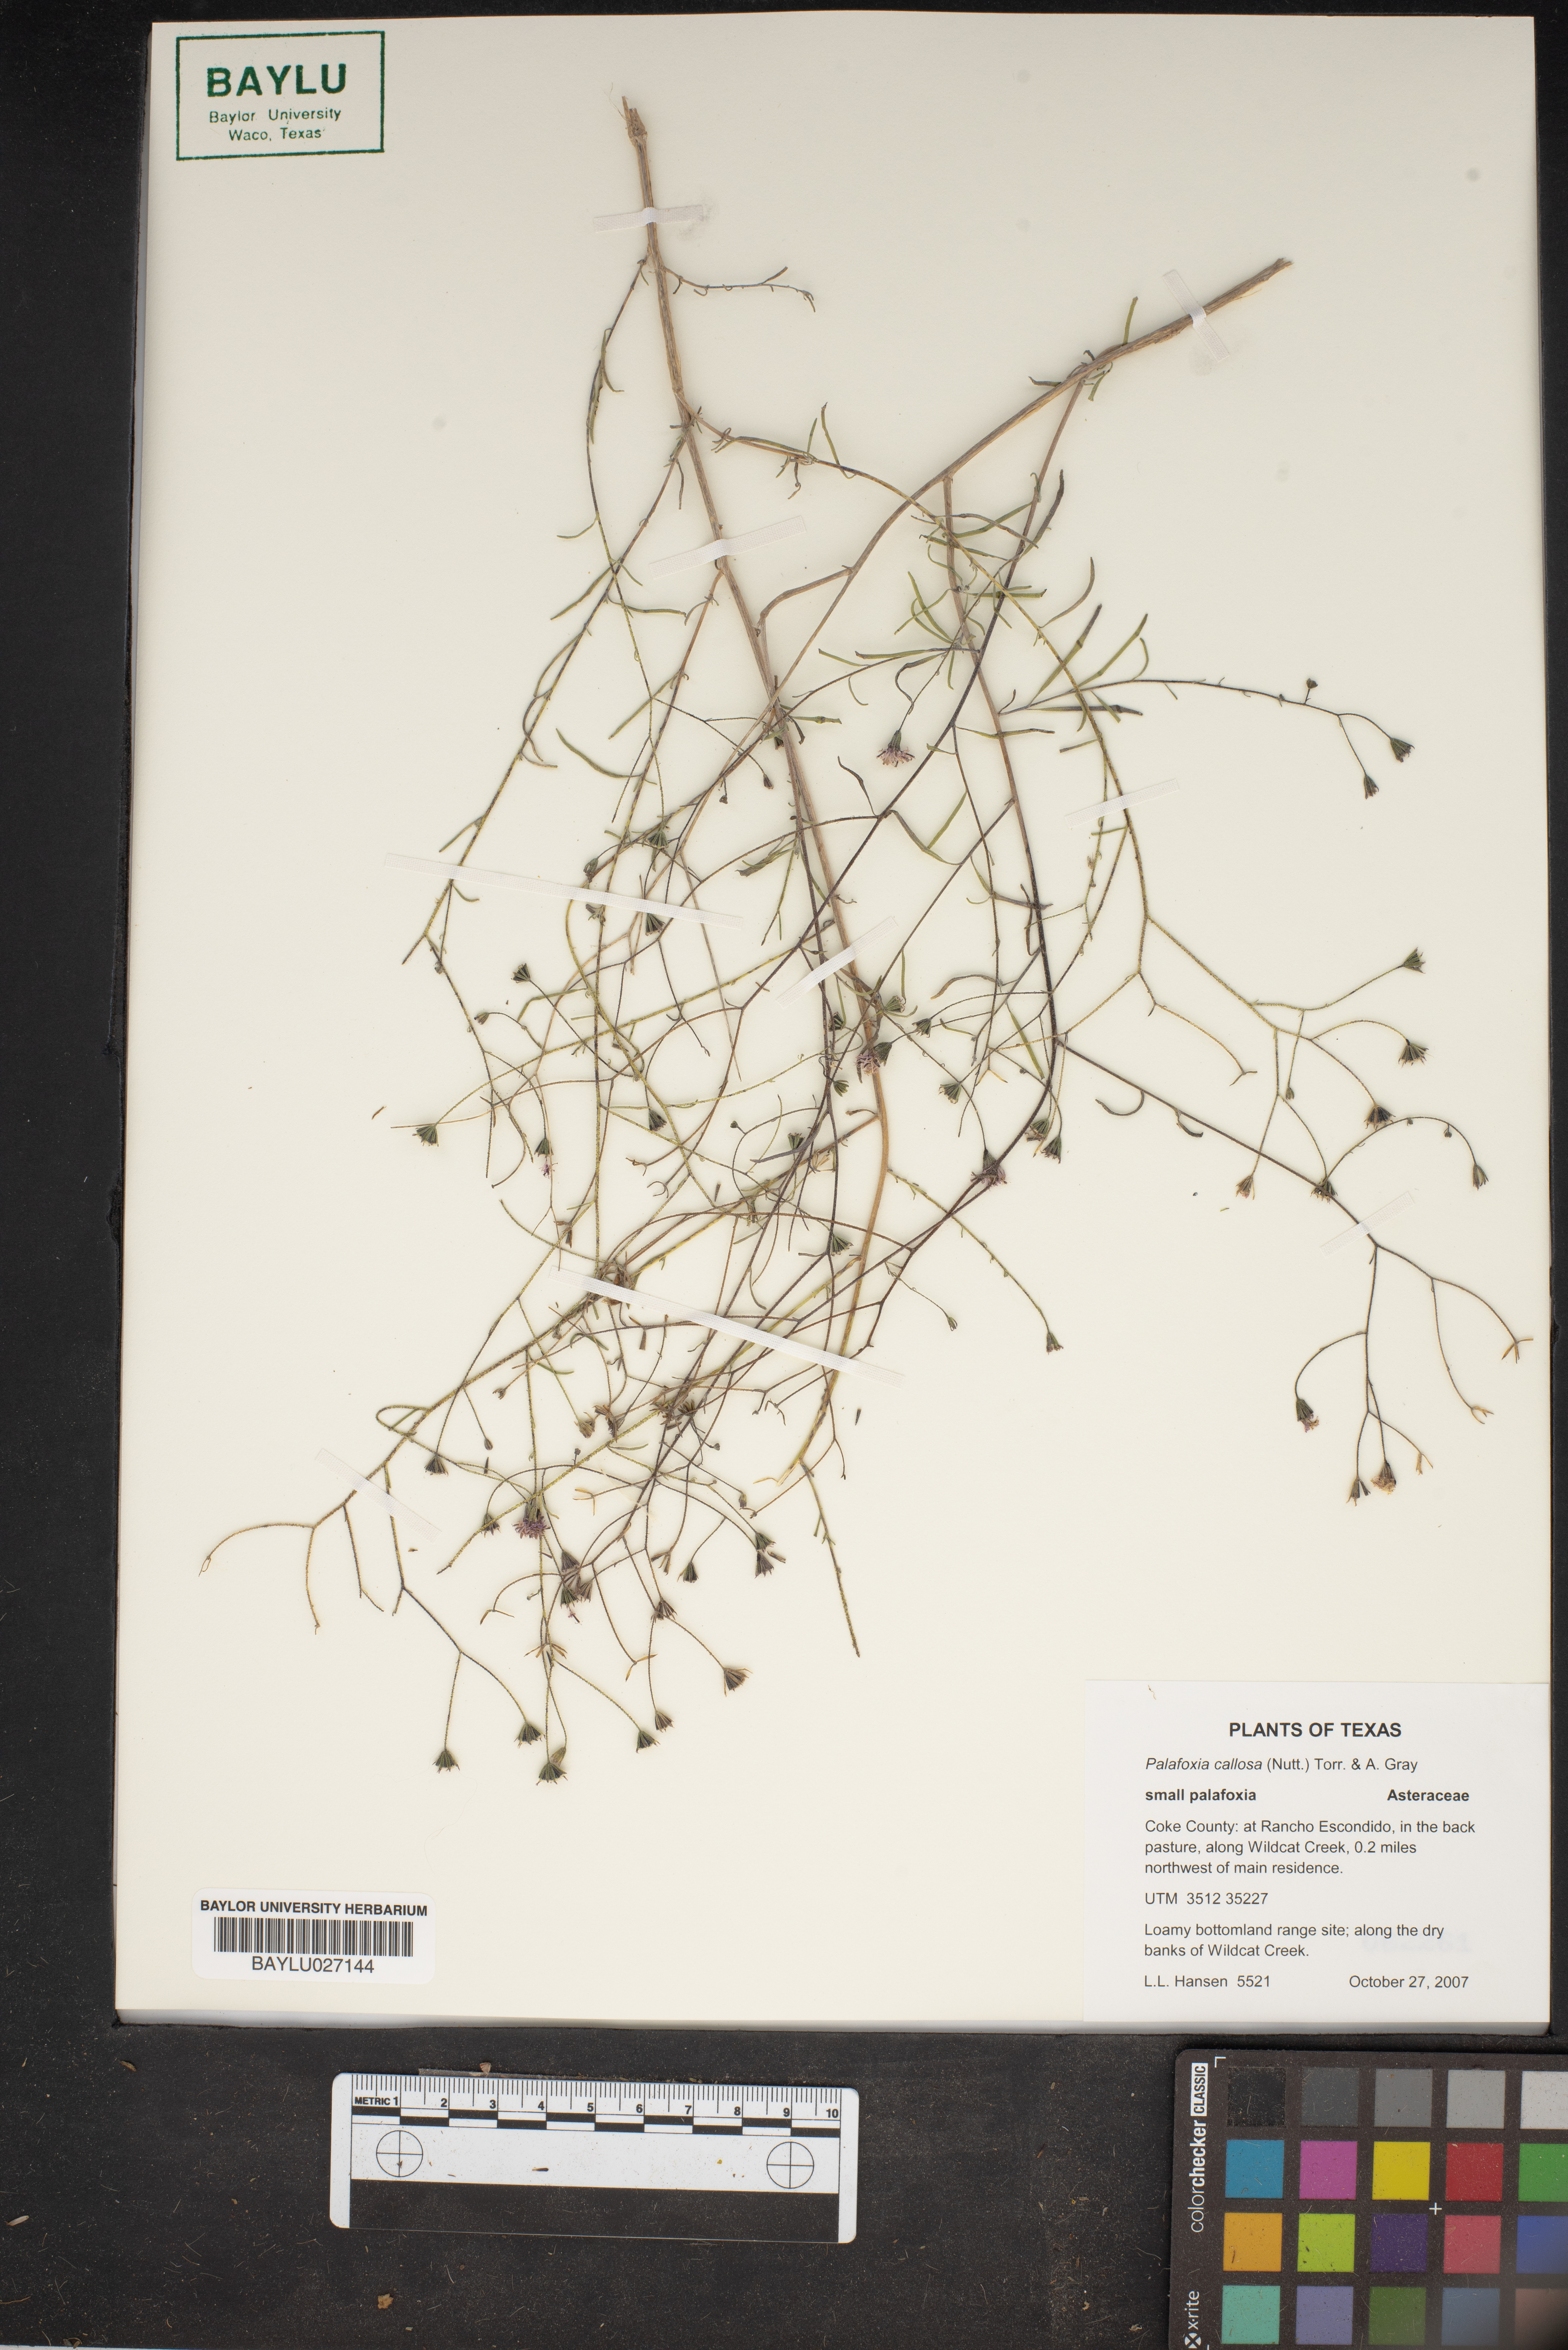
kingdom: Plantae
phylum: Tracheophyta
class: Magnoliopsida
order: Asterales
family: Asteraceae
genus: Palafoxia
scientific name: Palafoxia callosa
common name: Small palafox
